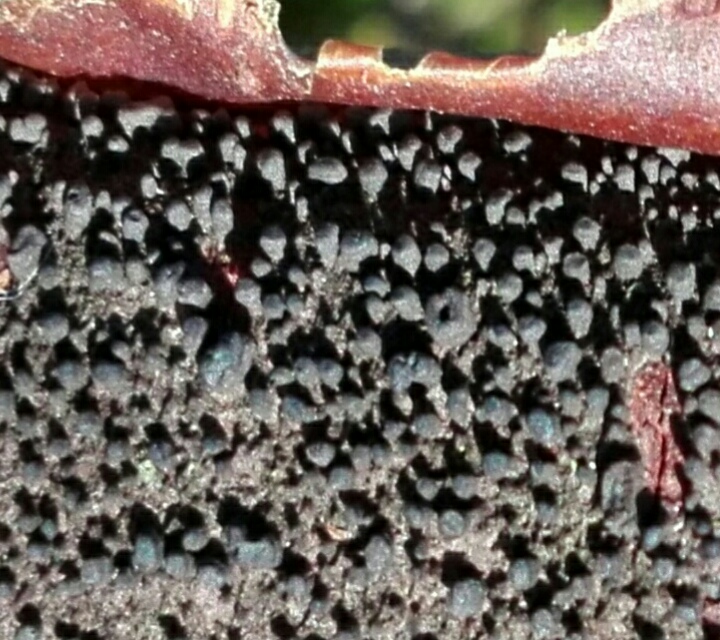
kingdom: Fungi
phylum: Ascomycota
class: Sordariomycetes
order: Diaporthales
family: Gnomoniaceae
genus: Xenotypa
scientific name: Xenotypa aterrima
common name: Birch bark stripper
